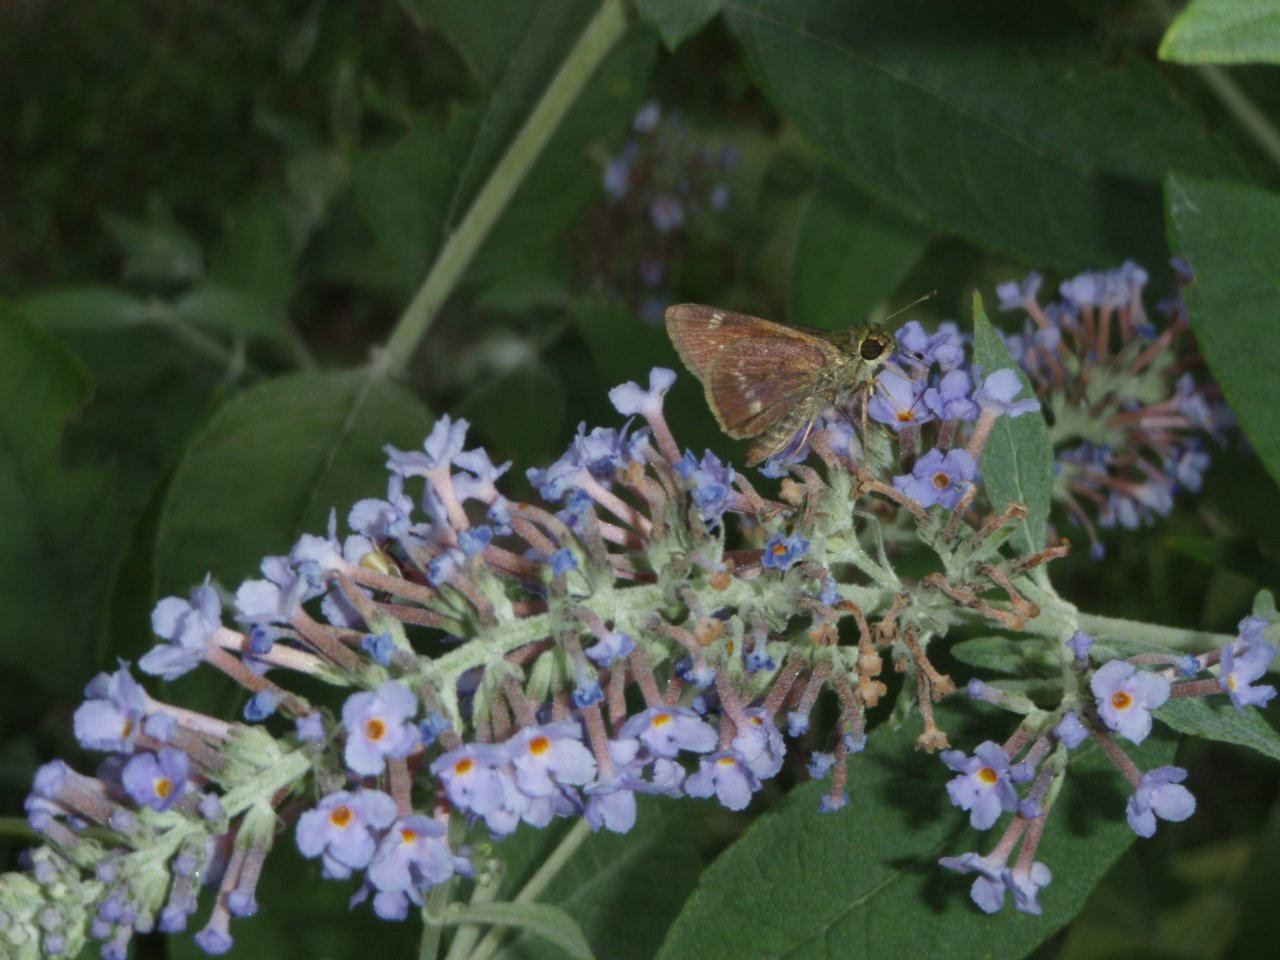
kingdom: Animalia
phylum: Arthropoda
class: Insecta
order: Lepidoptera
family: Hesperiidae
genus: Vernia
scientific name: Vernia verna
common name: Little Glassywing
